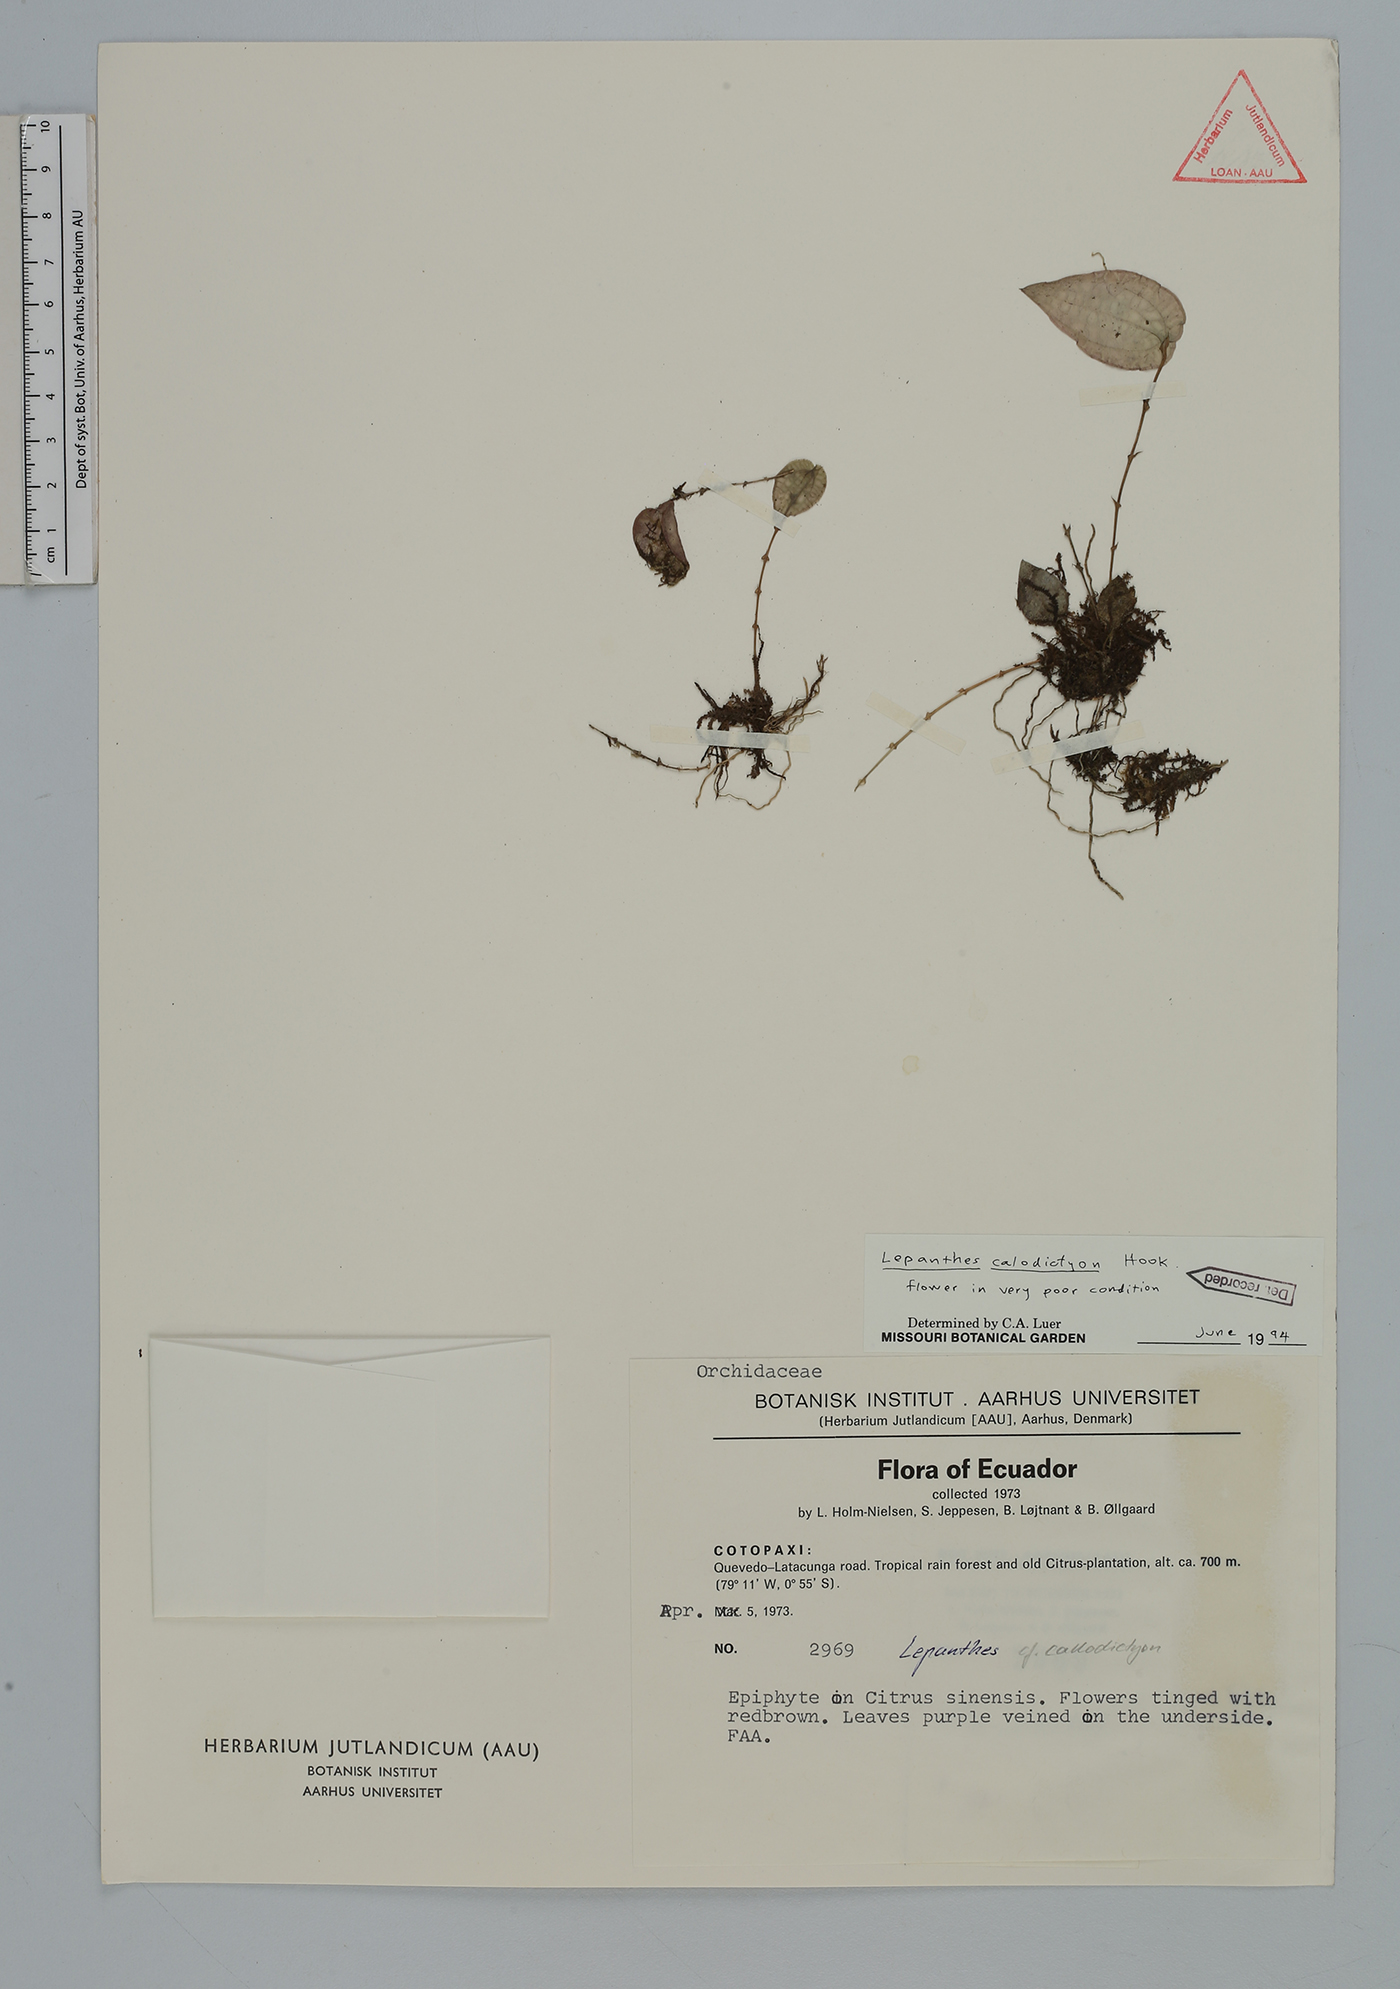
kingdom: Plantae
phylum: Tracheophyta
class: Liliopsida
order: Asparagales
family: Orchidaceae
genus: Lepanthes
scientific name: Lepanthes calodictyon
